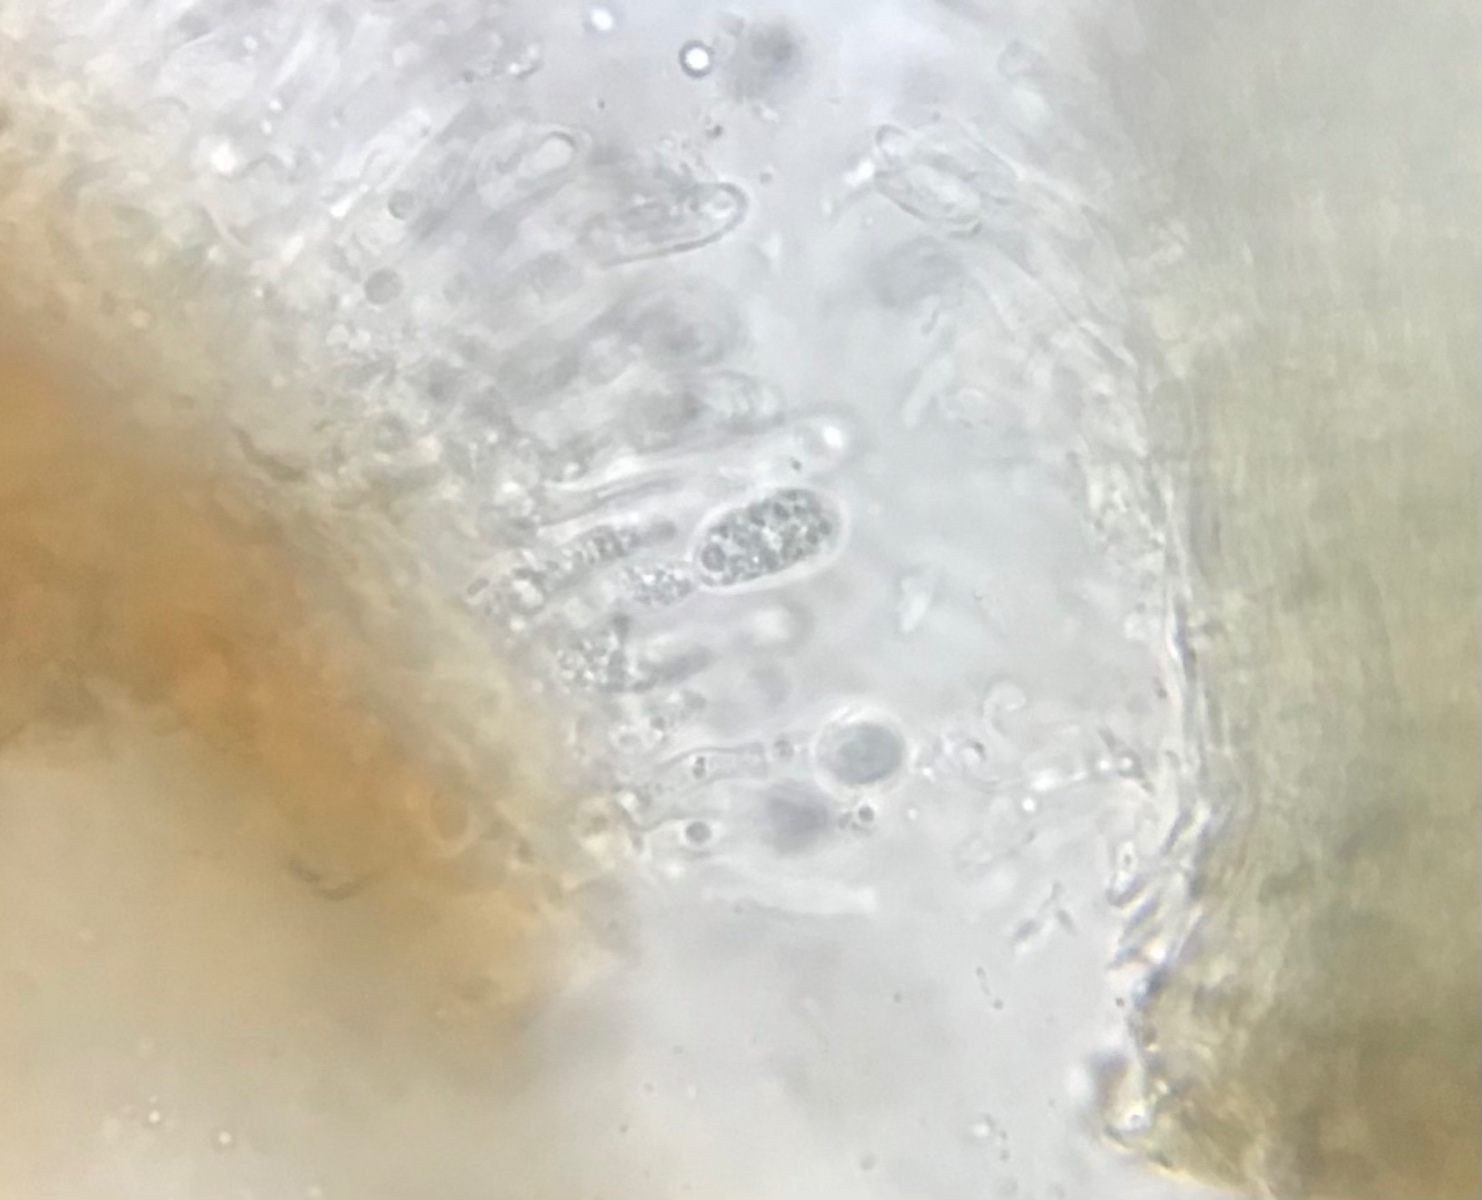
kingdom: Fungi
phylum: Ascomycota
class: Leotiomycetes
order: Helotiales
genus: Cryptocline
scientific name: Cryptocline taxicola
